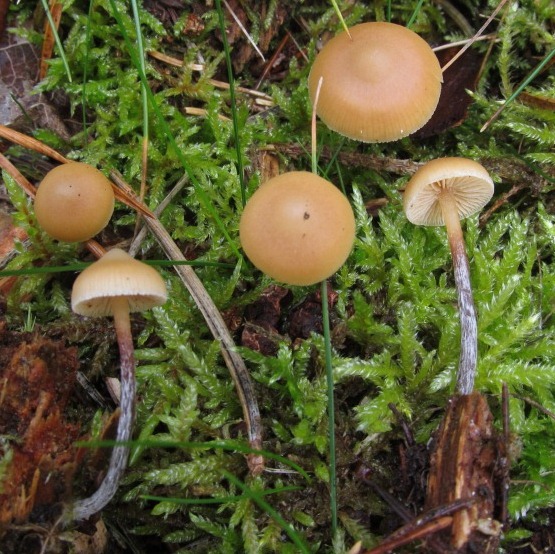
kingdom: Fungi
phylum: Basidiomycota
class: Agaricomycetes
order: Agaricales
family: Hymenogastraceae
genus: Galerina
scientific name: Galerina camerina
